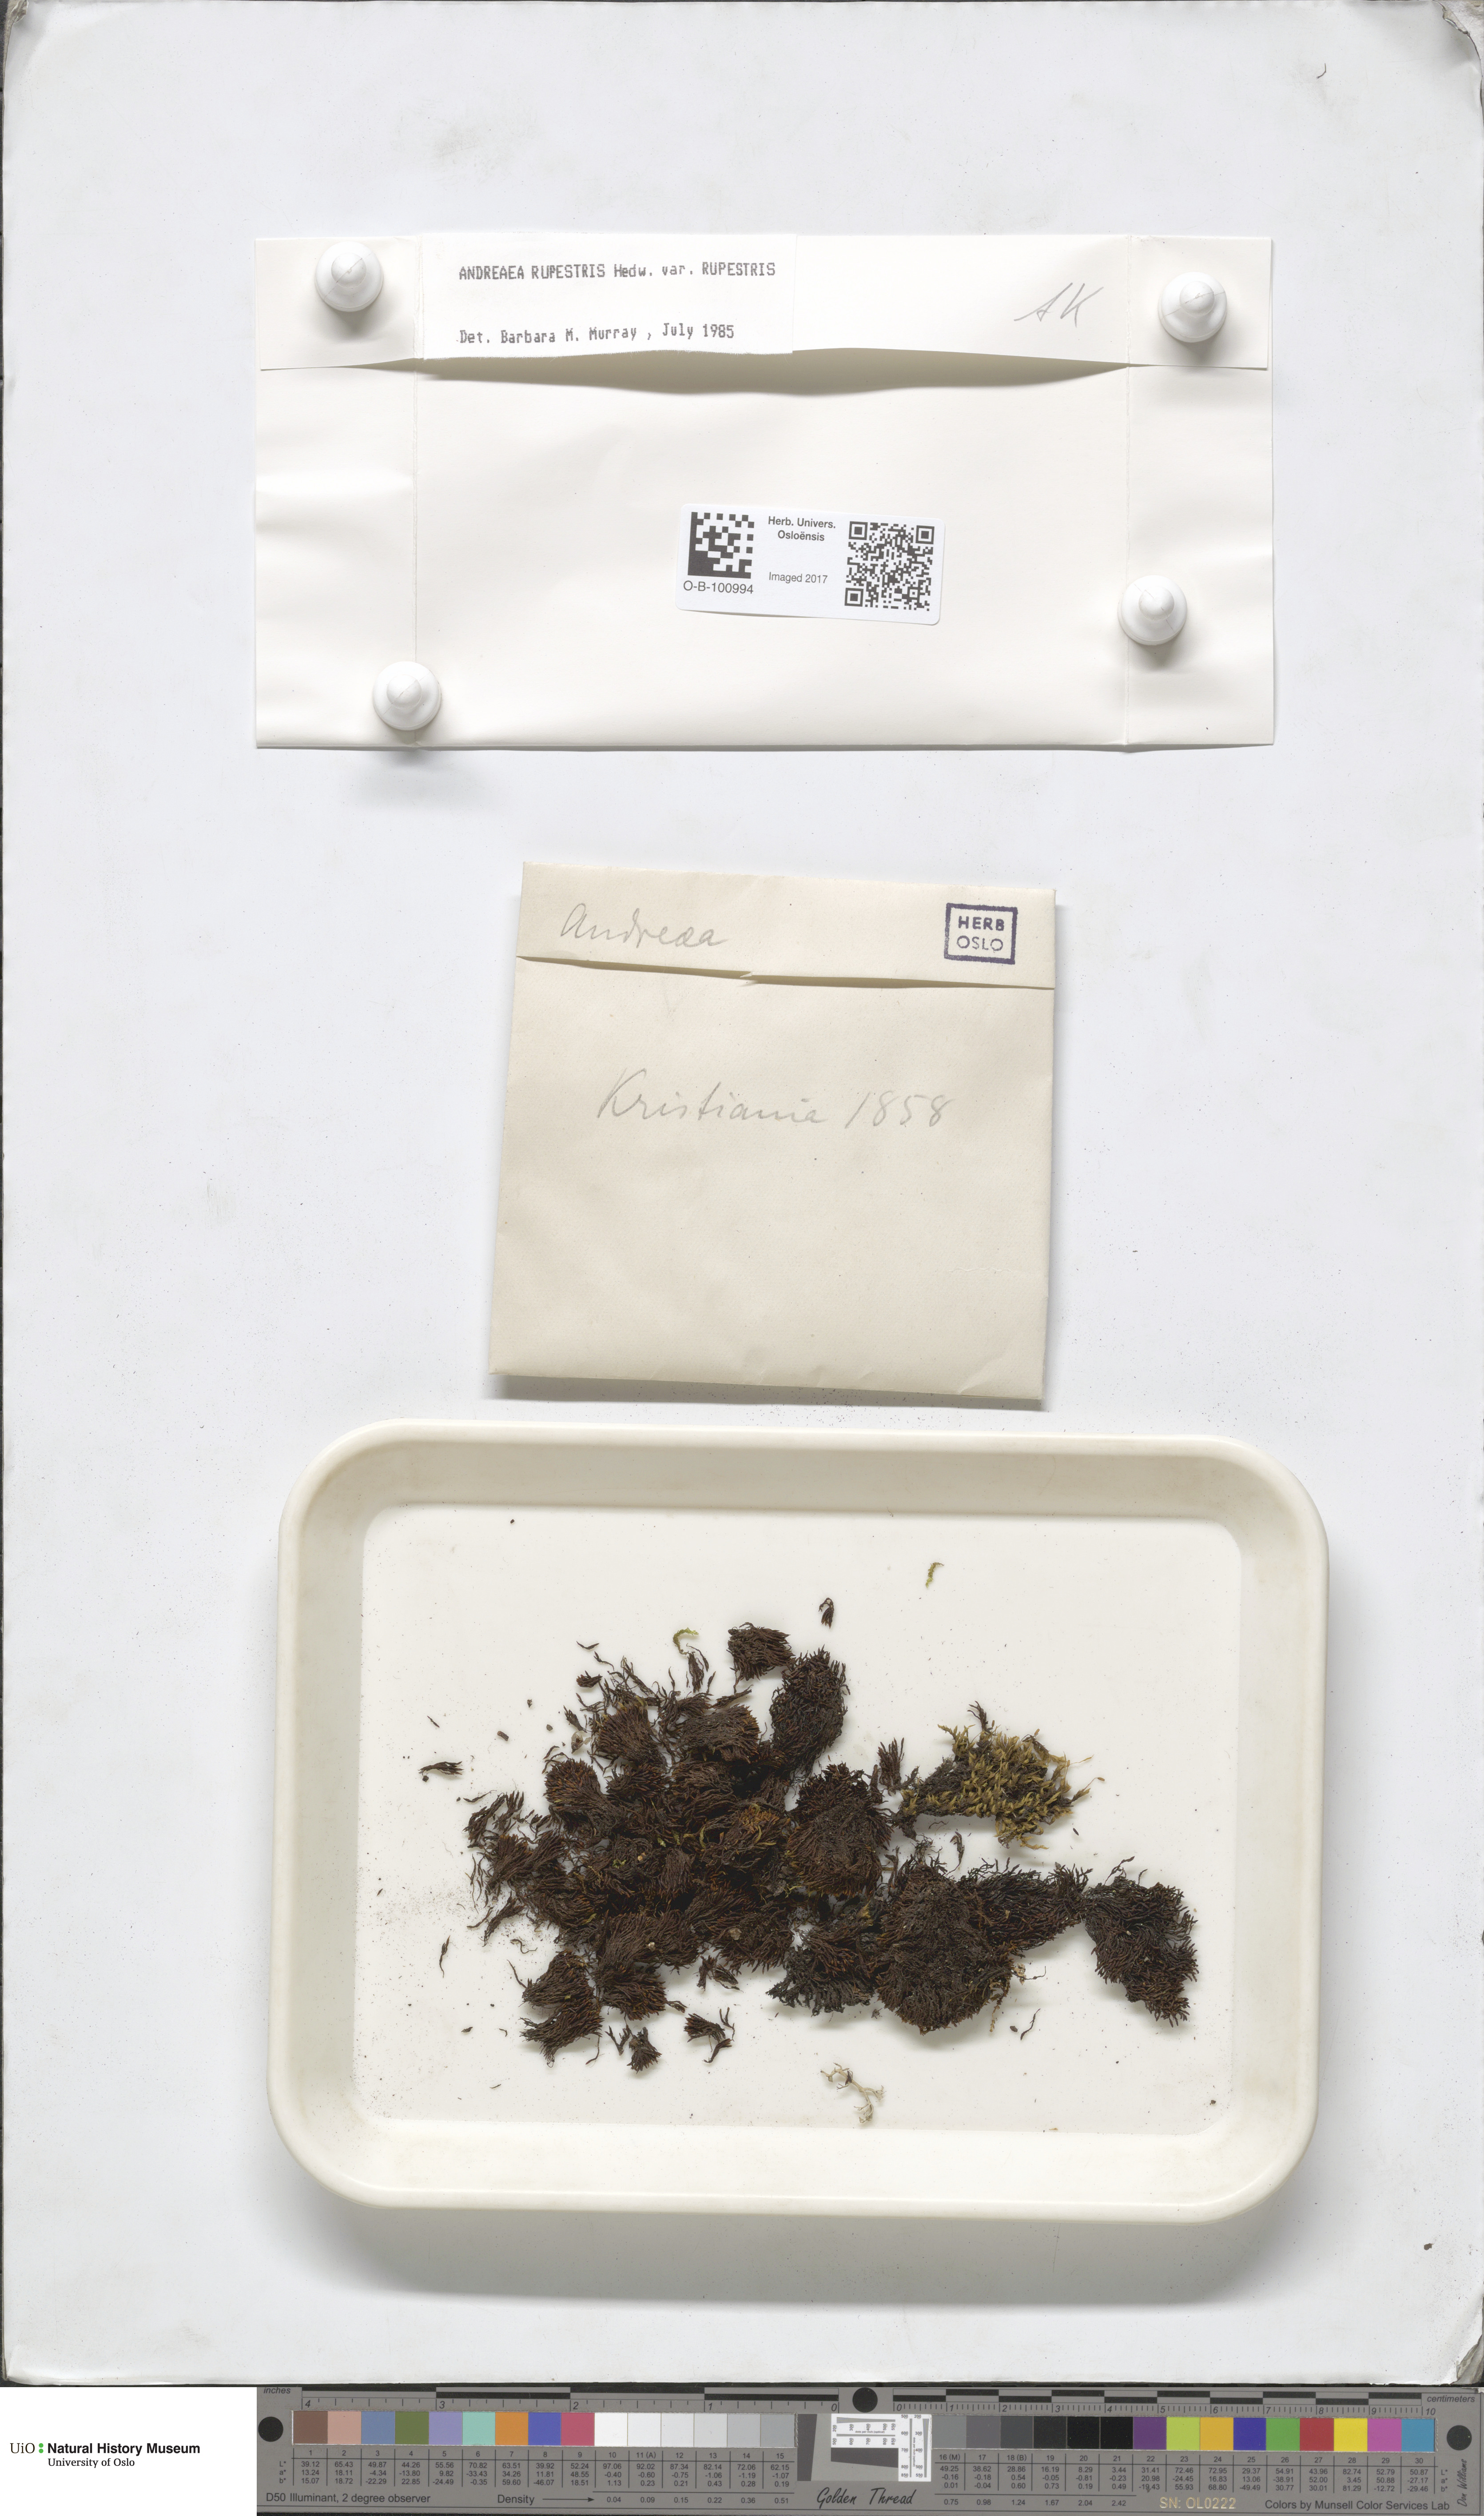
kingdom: Plantae
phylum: Bryophyta
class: Andreaeopsida
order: Andreaeales
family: Andreaeaceae
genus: Andreaea
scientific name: Andreaea rupestris
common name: Black rock moss
